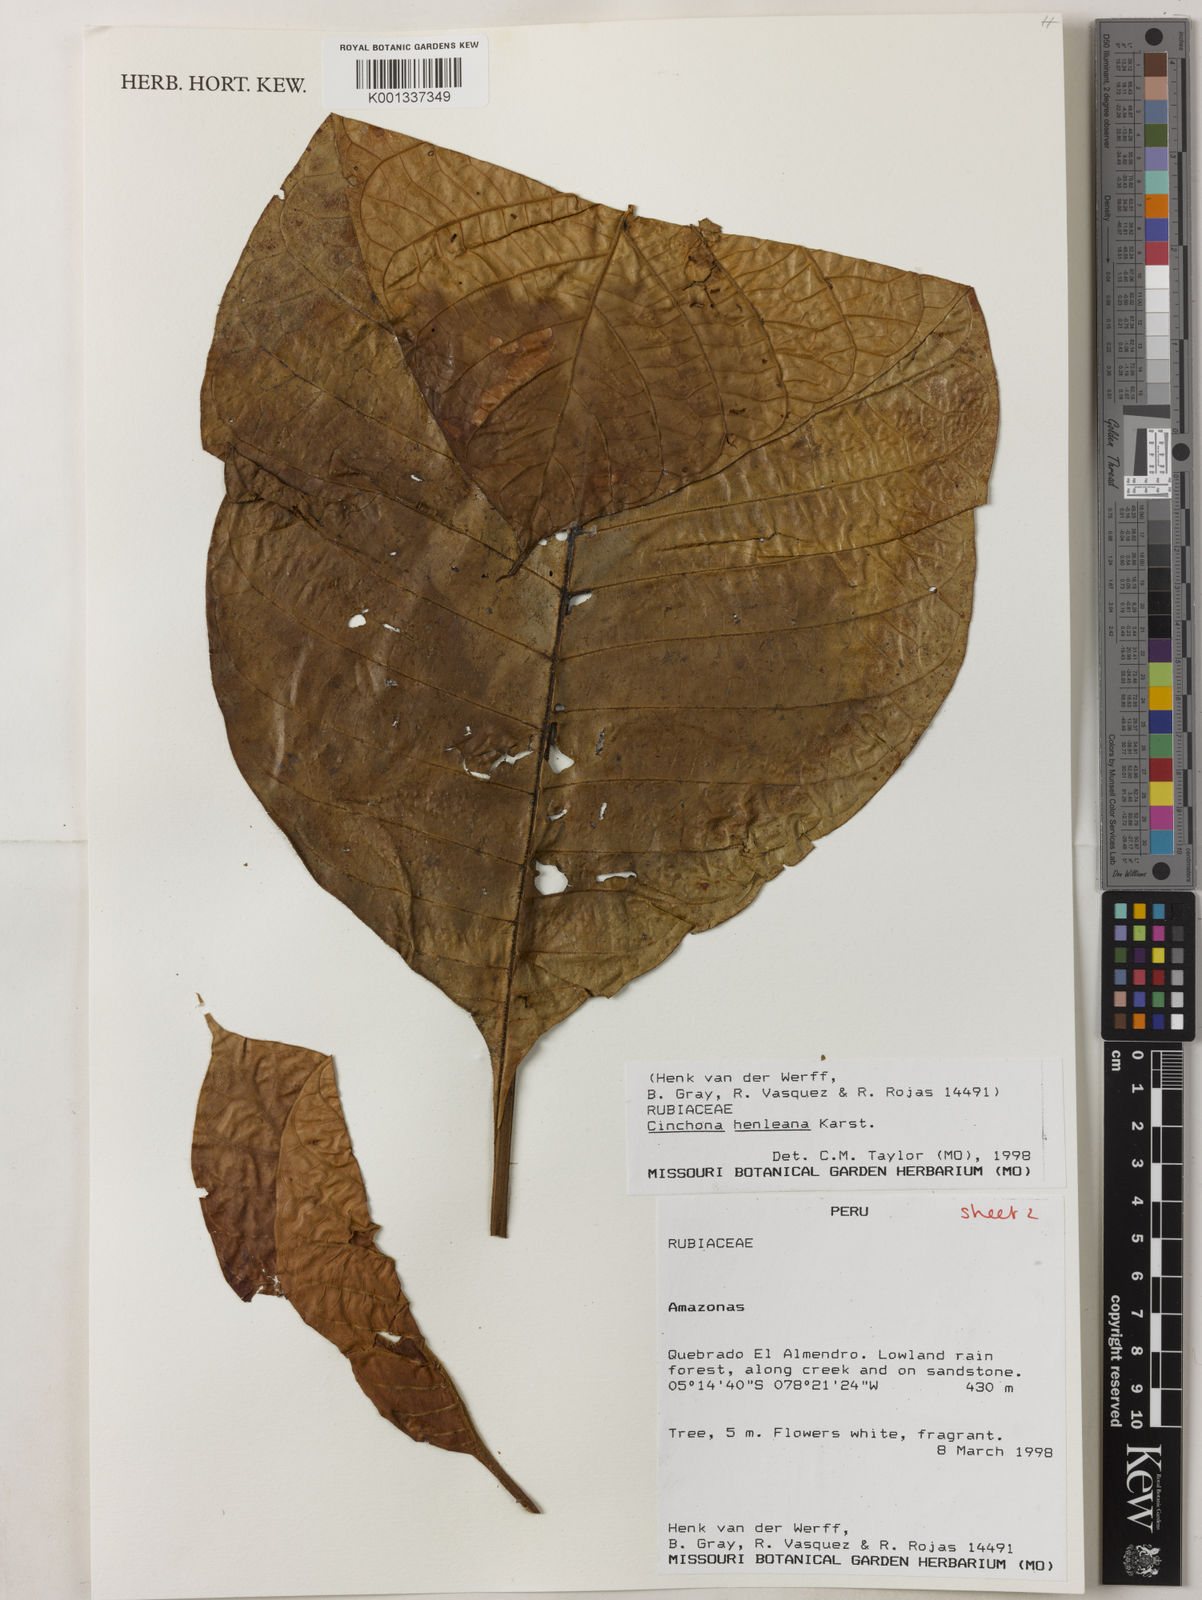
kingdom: Plantae
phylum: Tracheophyta
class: Magnoliopsida
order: Gentianales
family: Rubiaceae
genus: Ladenbergia
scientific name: Ladenbergia muzonensis
